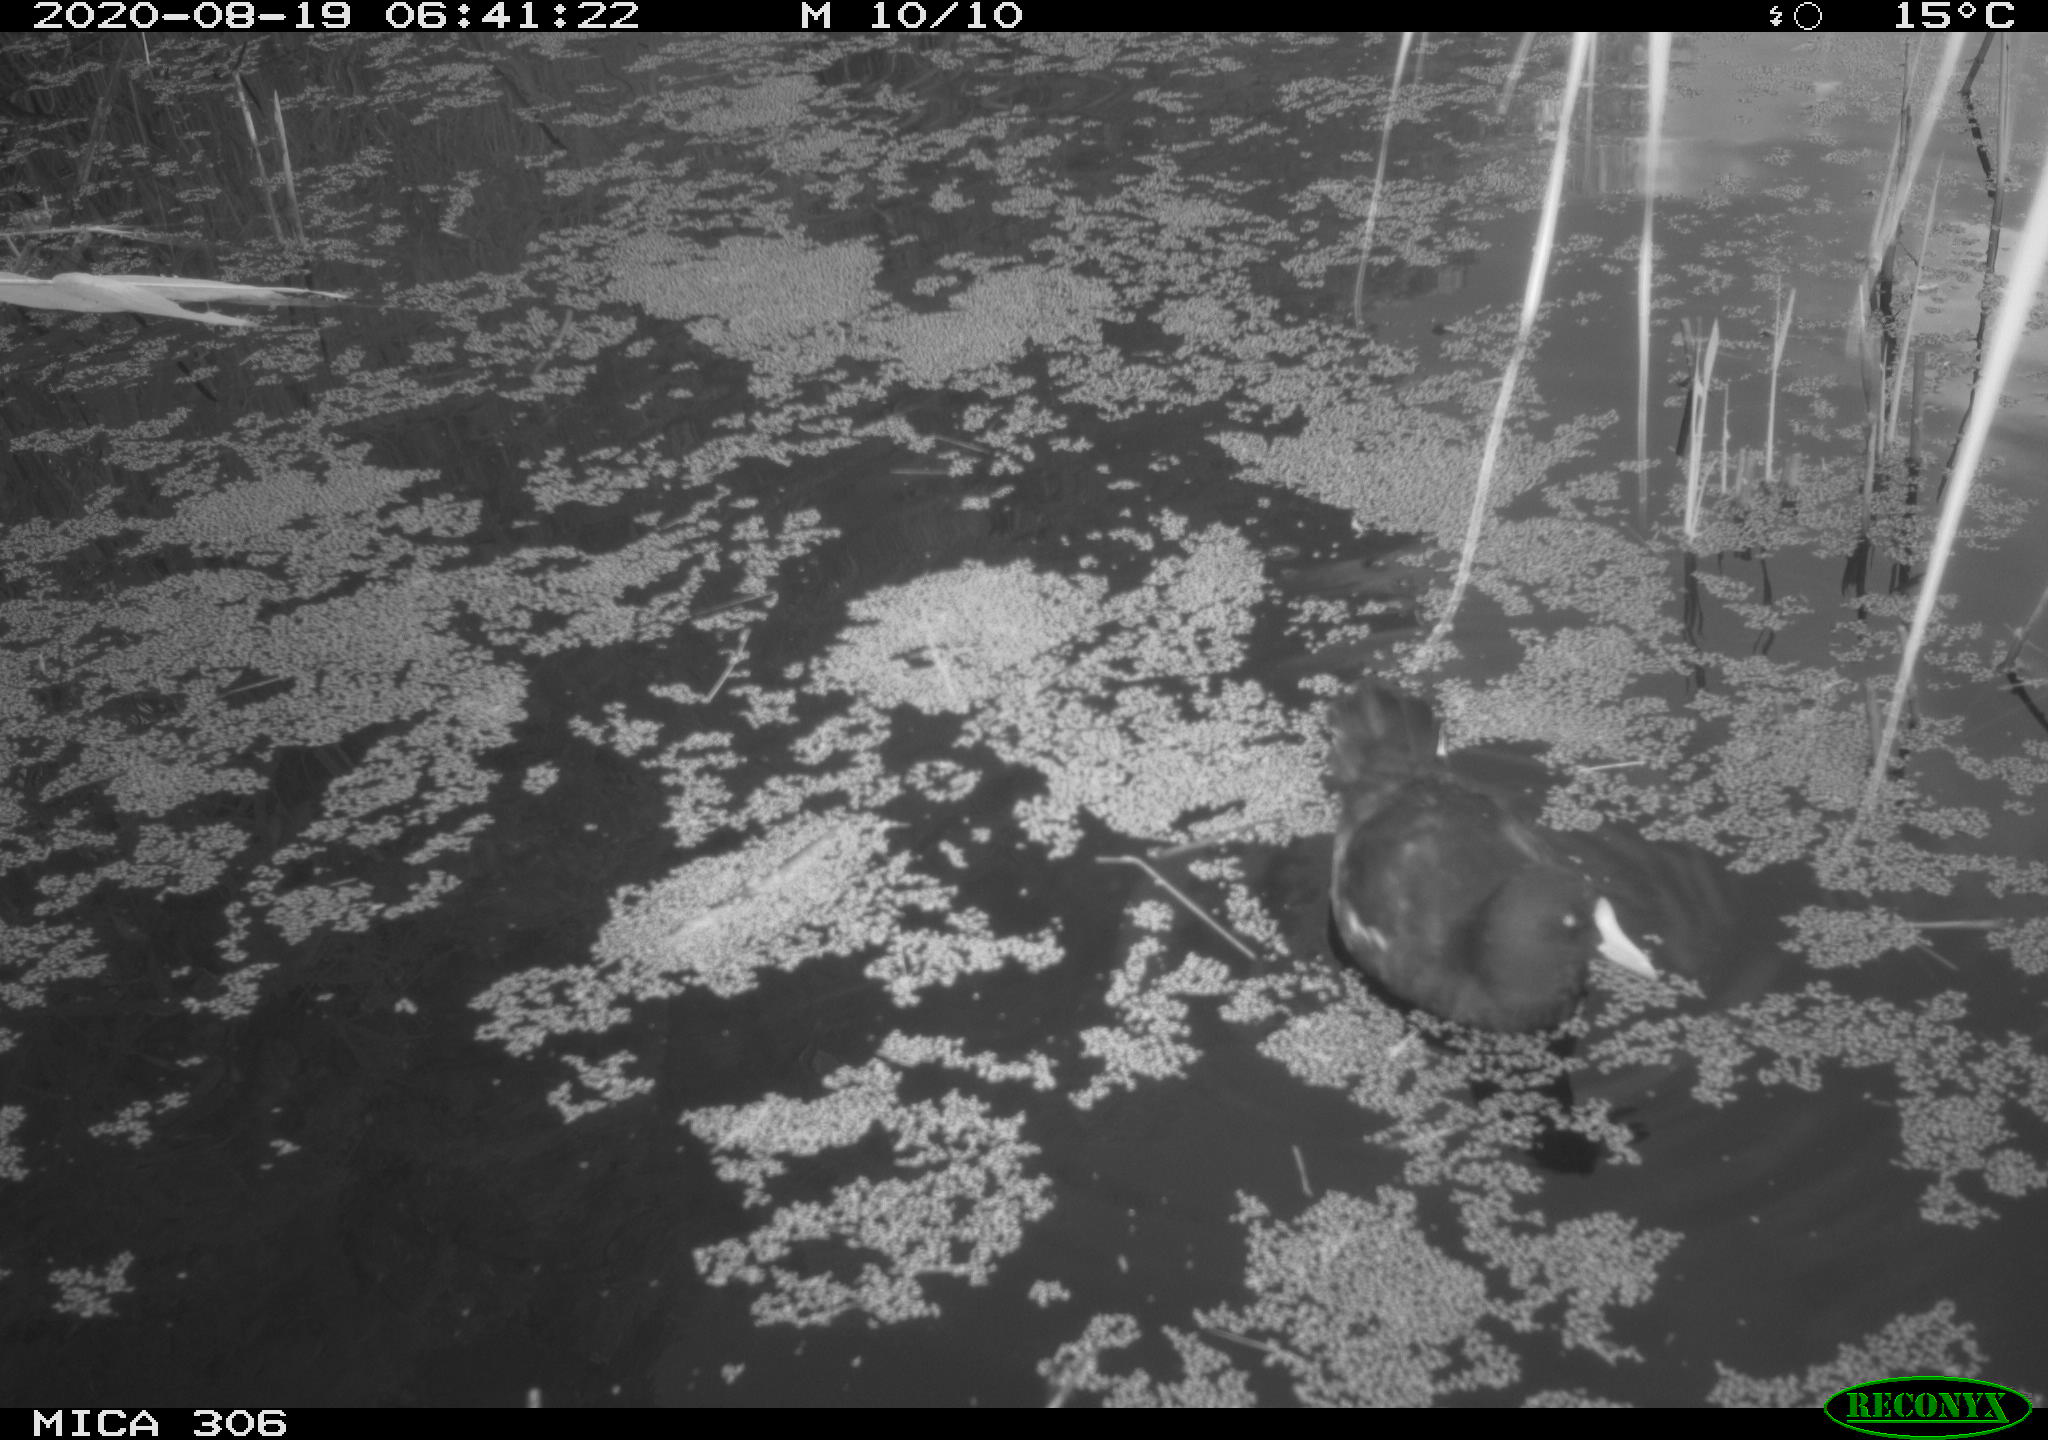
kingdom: Animalia
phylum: Chordata
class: Aves
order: Gruiformes
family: Rallidae
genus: Fulica
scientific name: Fulica atra
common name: Eurasian coot
